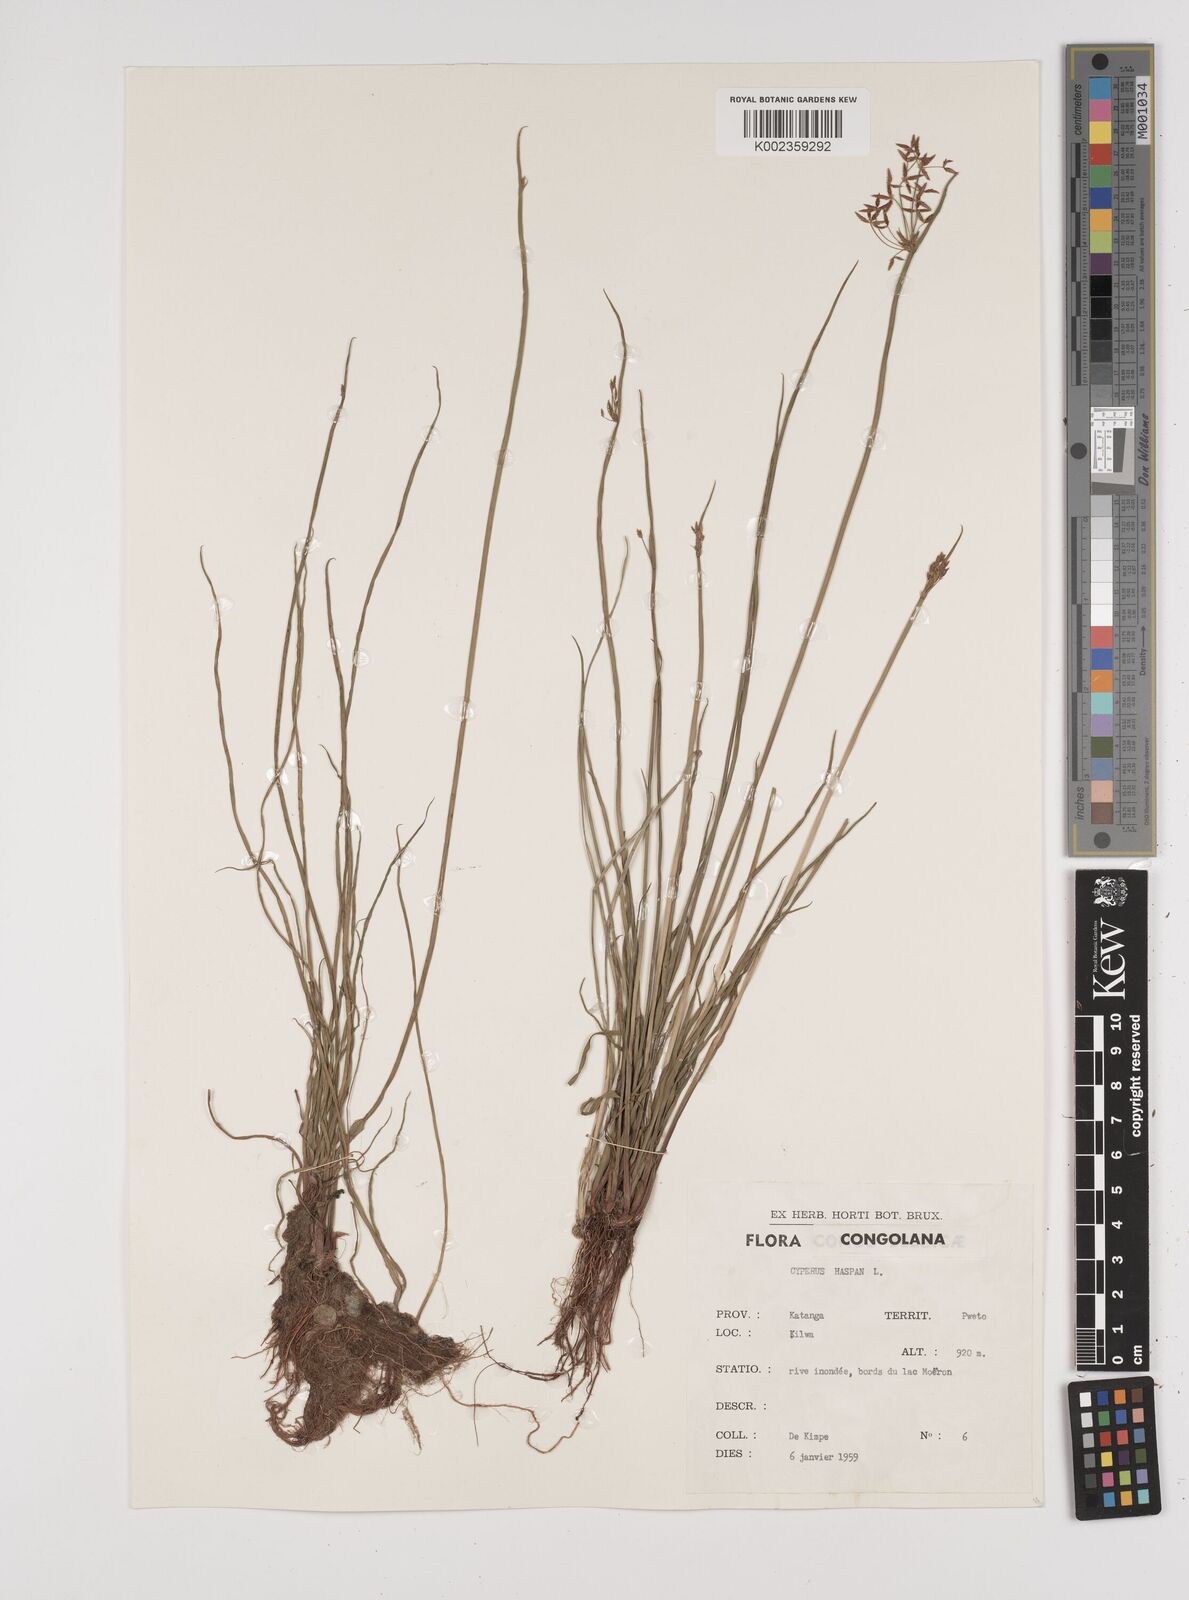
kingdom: Plantae
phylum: Tracheophyta
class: Liliopsida
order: Poales
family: Cyperaceae
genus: Cyperus
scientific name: Cyperus haspan
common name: Haspan flatsedge
